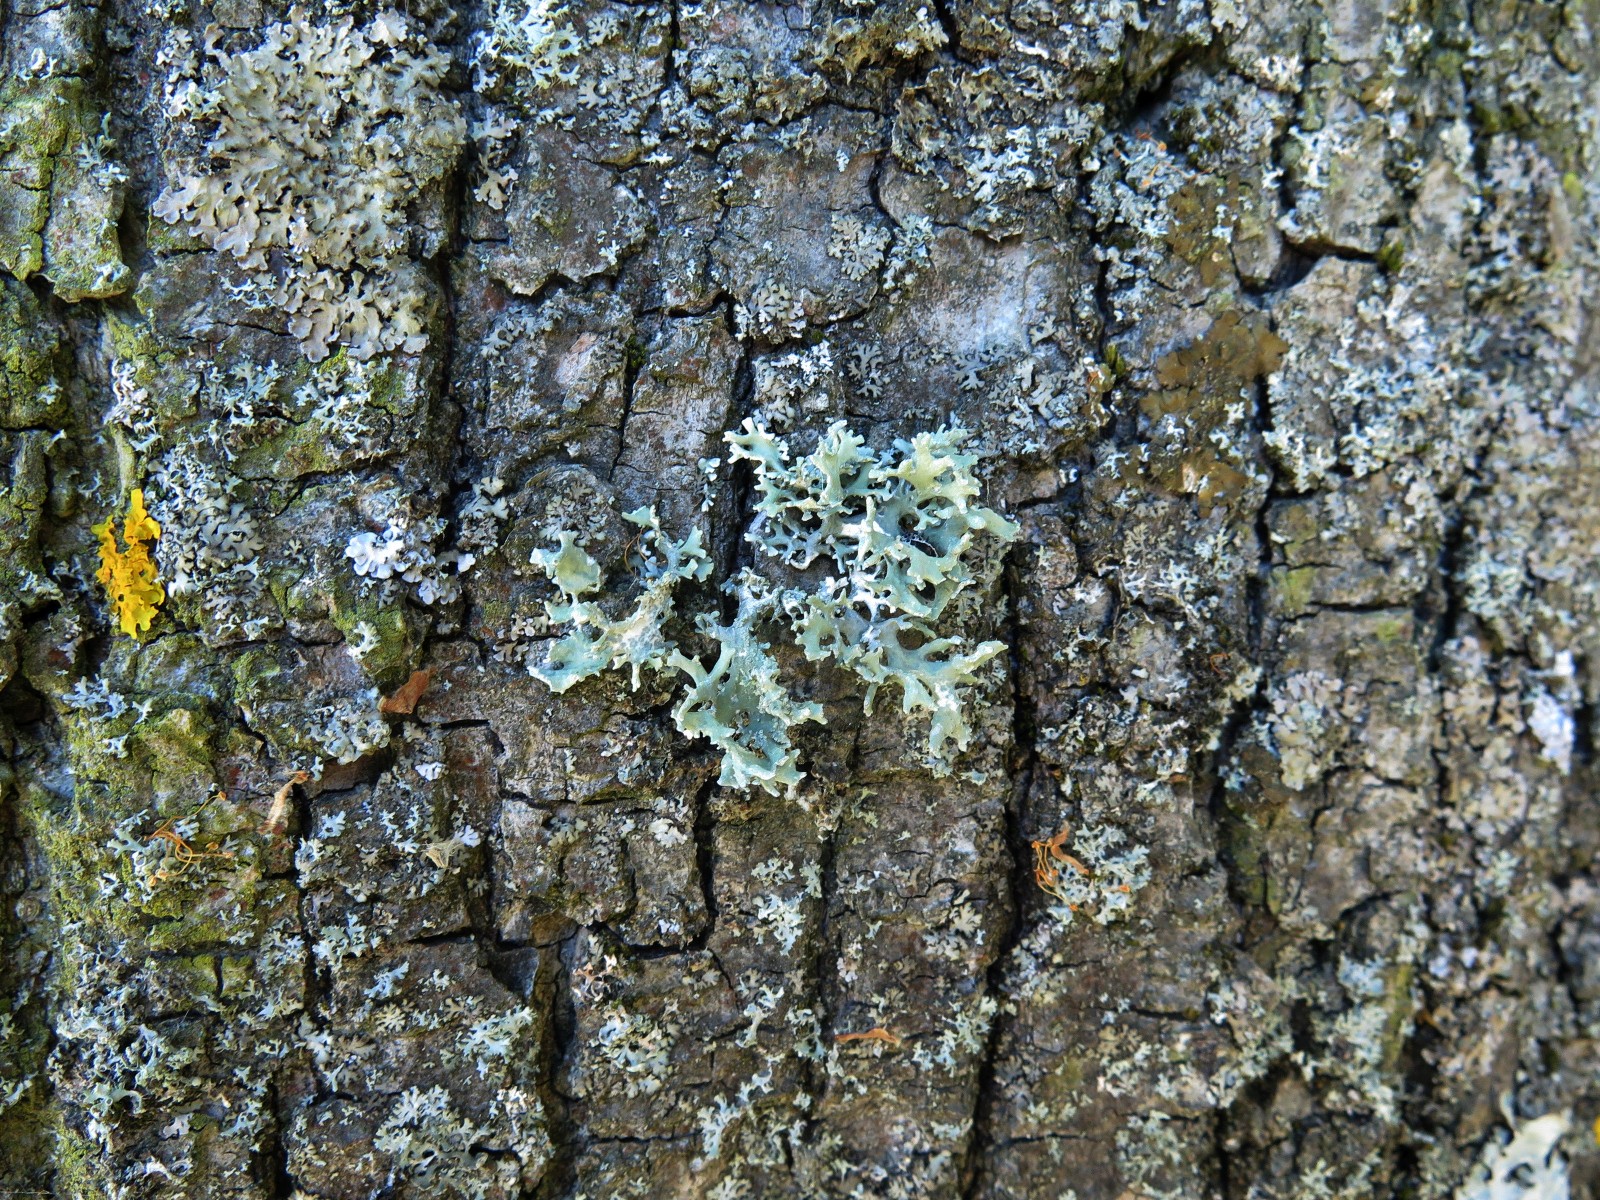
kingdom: Fungi
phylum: Ascomycota
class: Lecanoromycetes
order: Lecanorales
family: Parmeliaceae
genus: Evernia
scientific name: Evernia prunastri
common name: almindelig slåenlav
